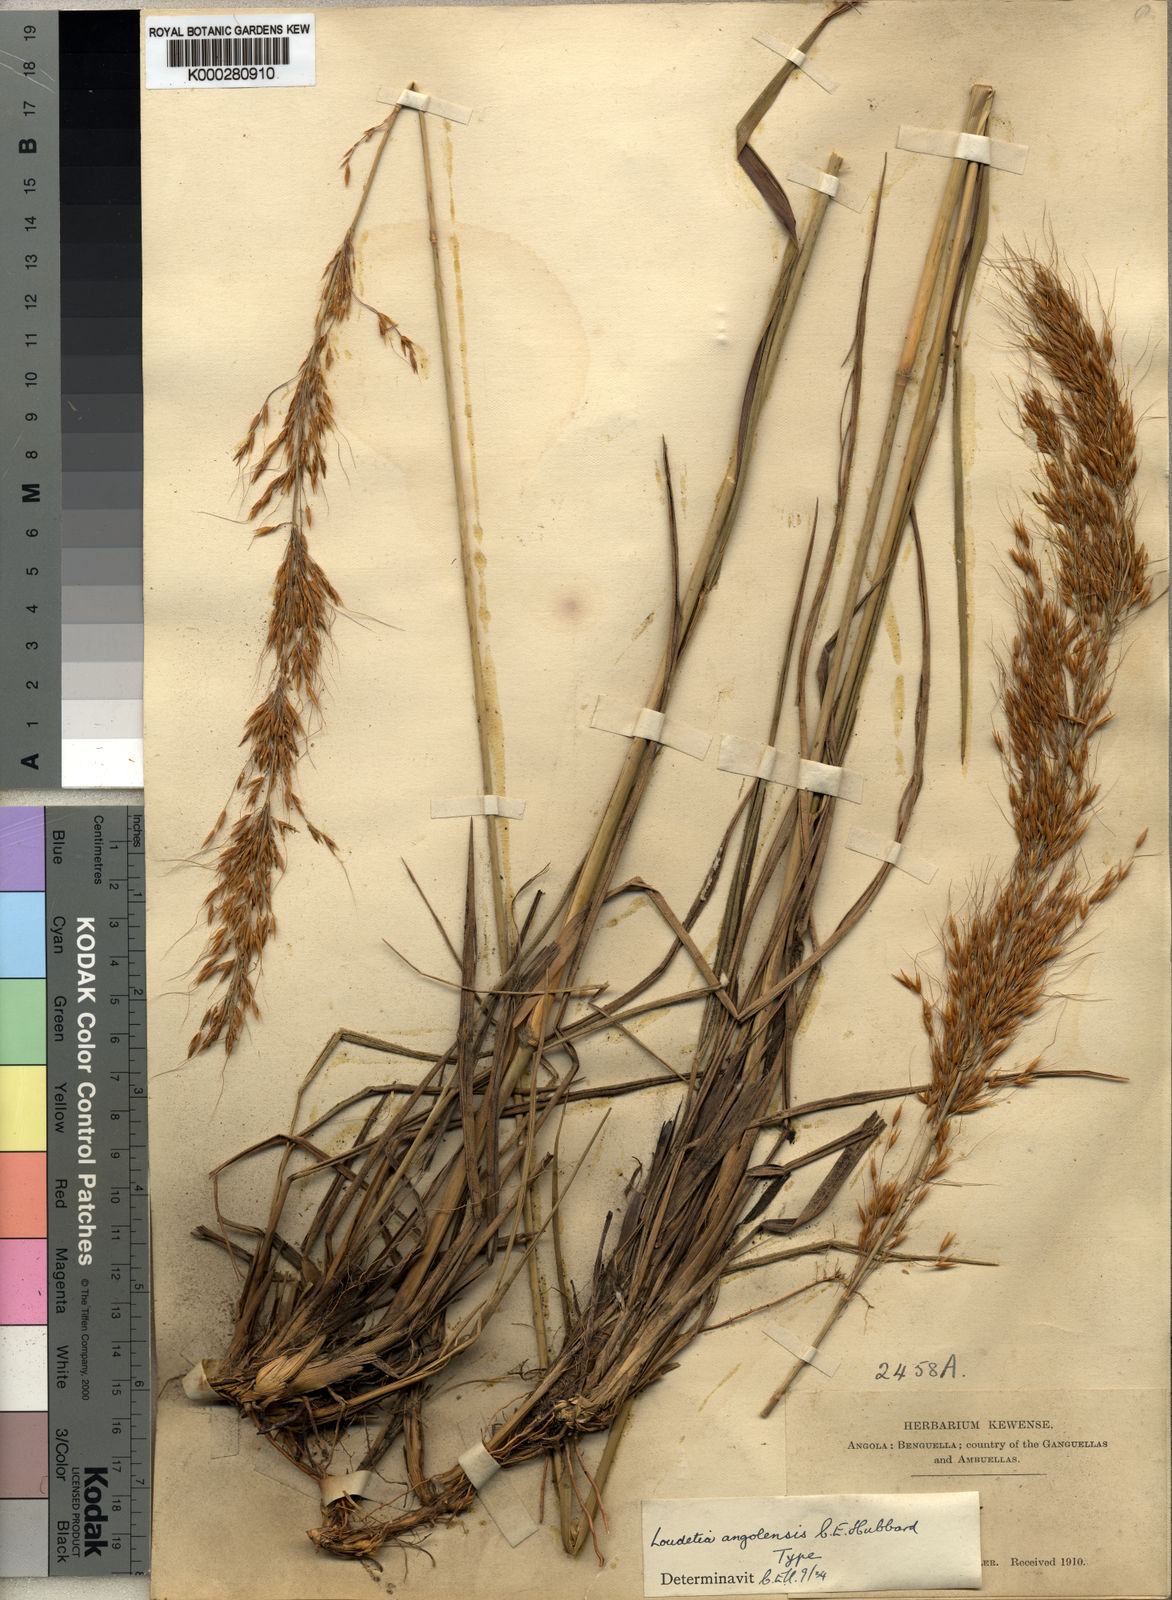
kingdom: Plantae
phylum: Tracheophyta
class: Liliopsida
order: Poales
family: Poaceae
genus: Loudetia
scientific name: Loudetia angolensis
